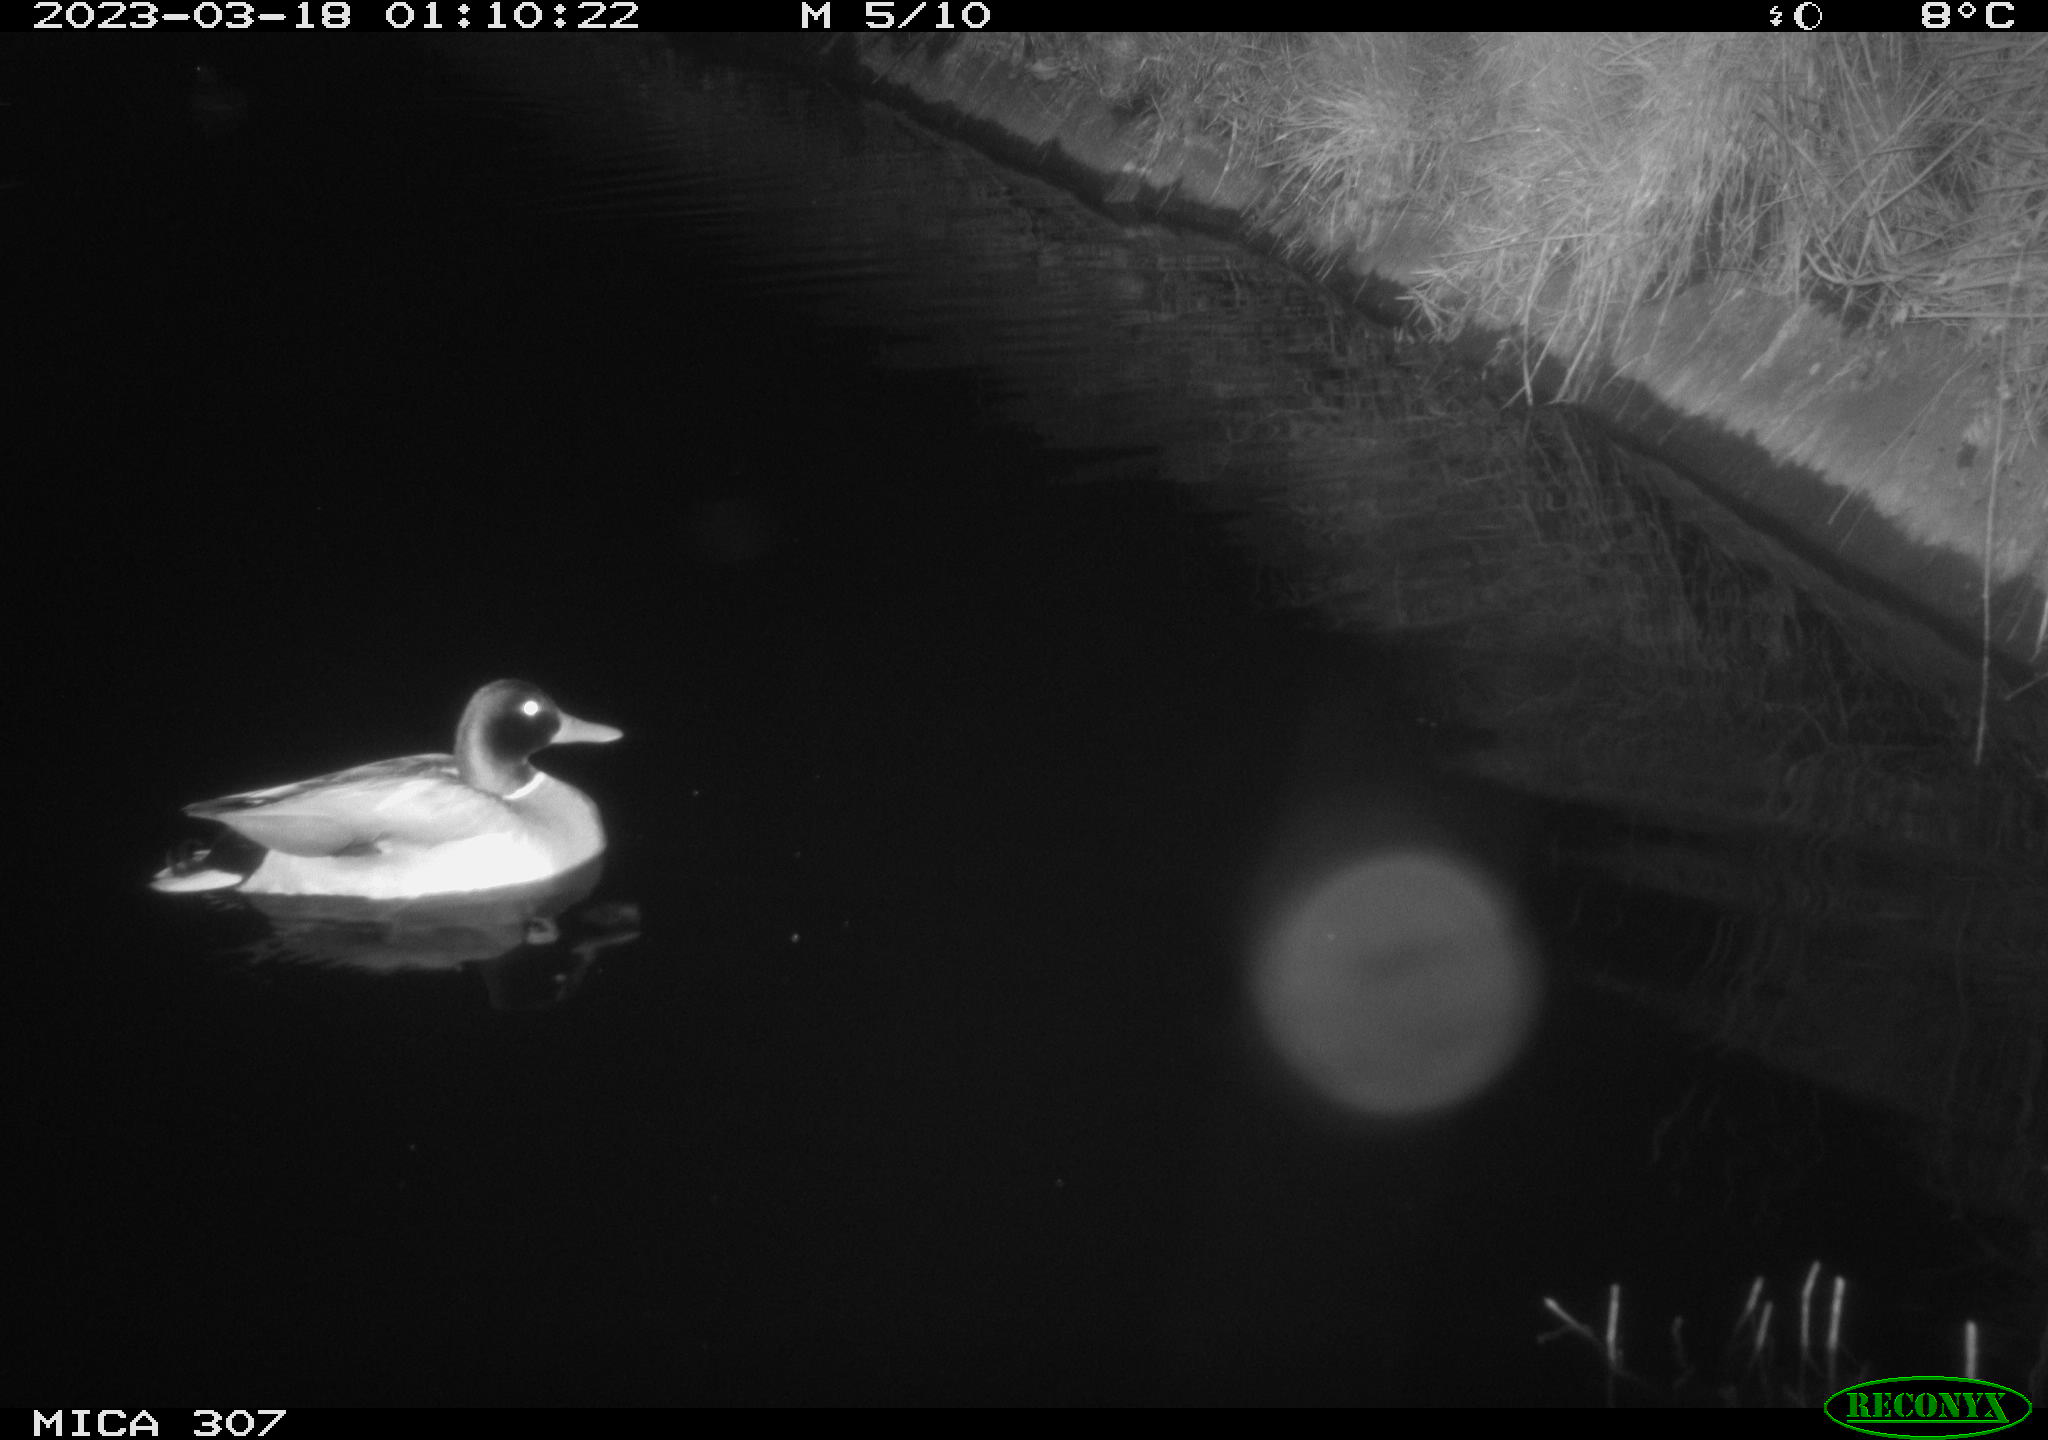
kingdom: Animalia
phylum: Chordata
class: Aves
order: Anseriformes
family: Anatidae
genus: Anas
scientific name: Anas
